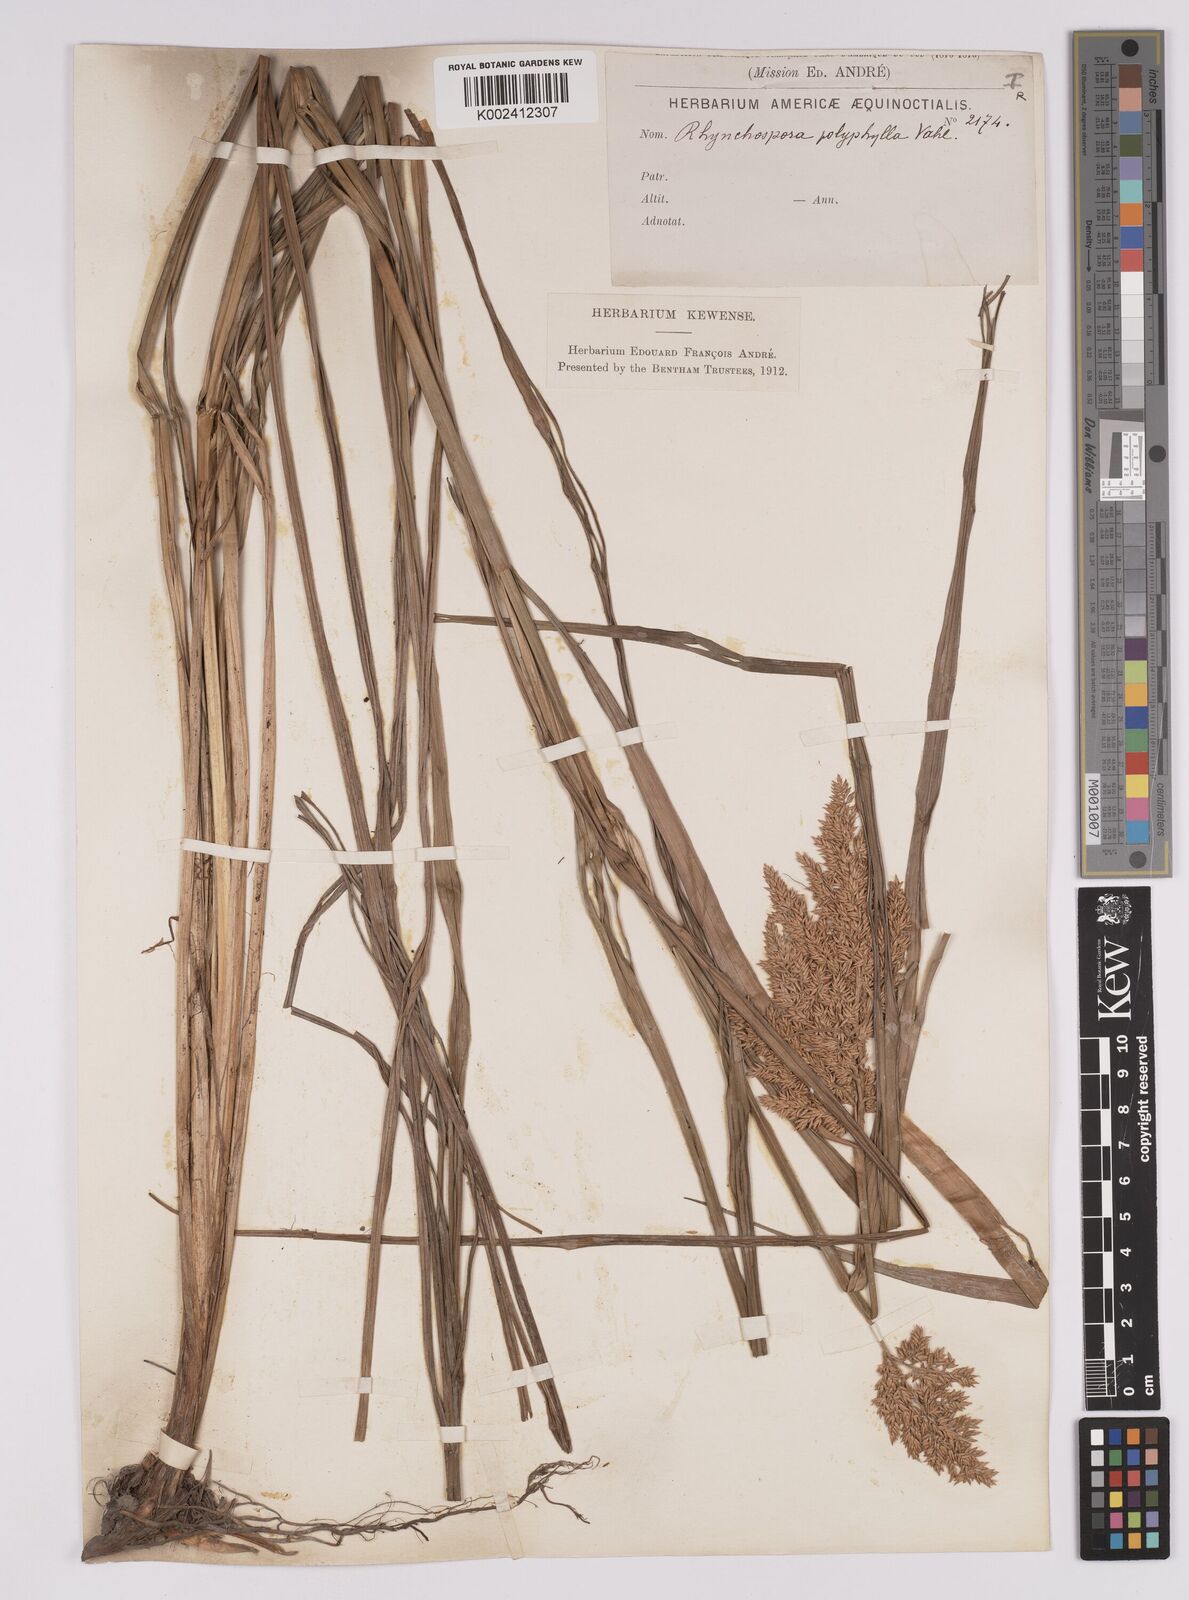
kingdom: Plantae
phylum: Tracheophyta
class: Liliopsida
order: Poales
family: Cyperaceae
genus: Rhynchospora
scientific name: Rhynchospora polyphylla
